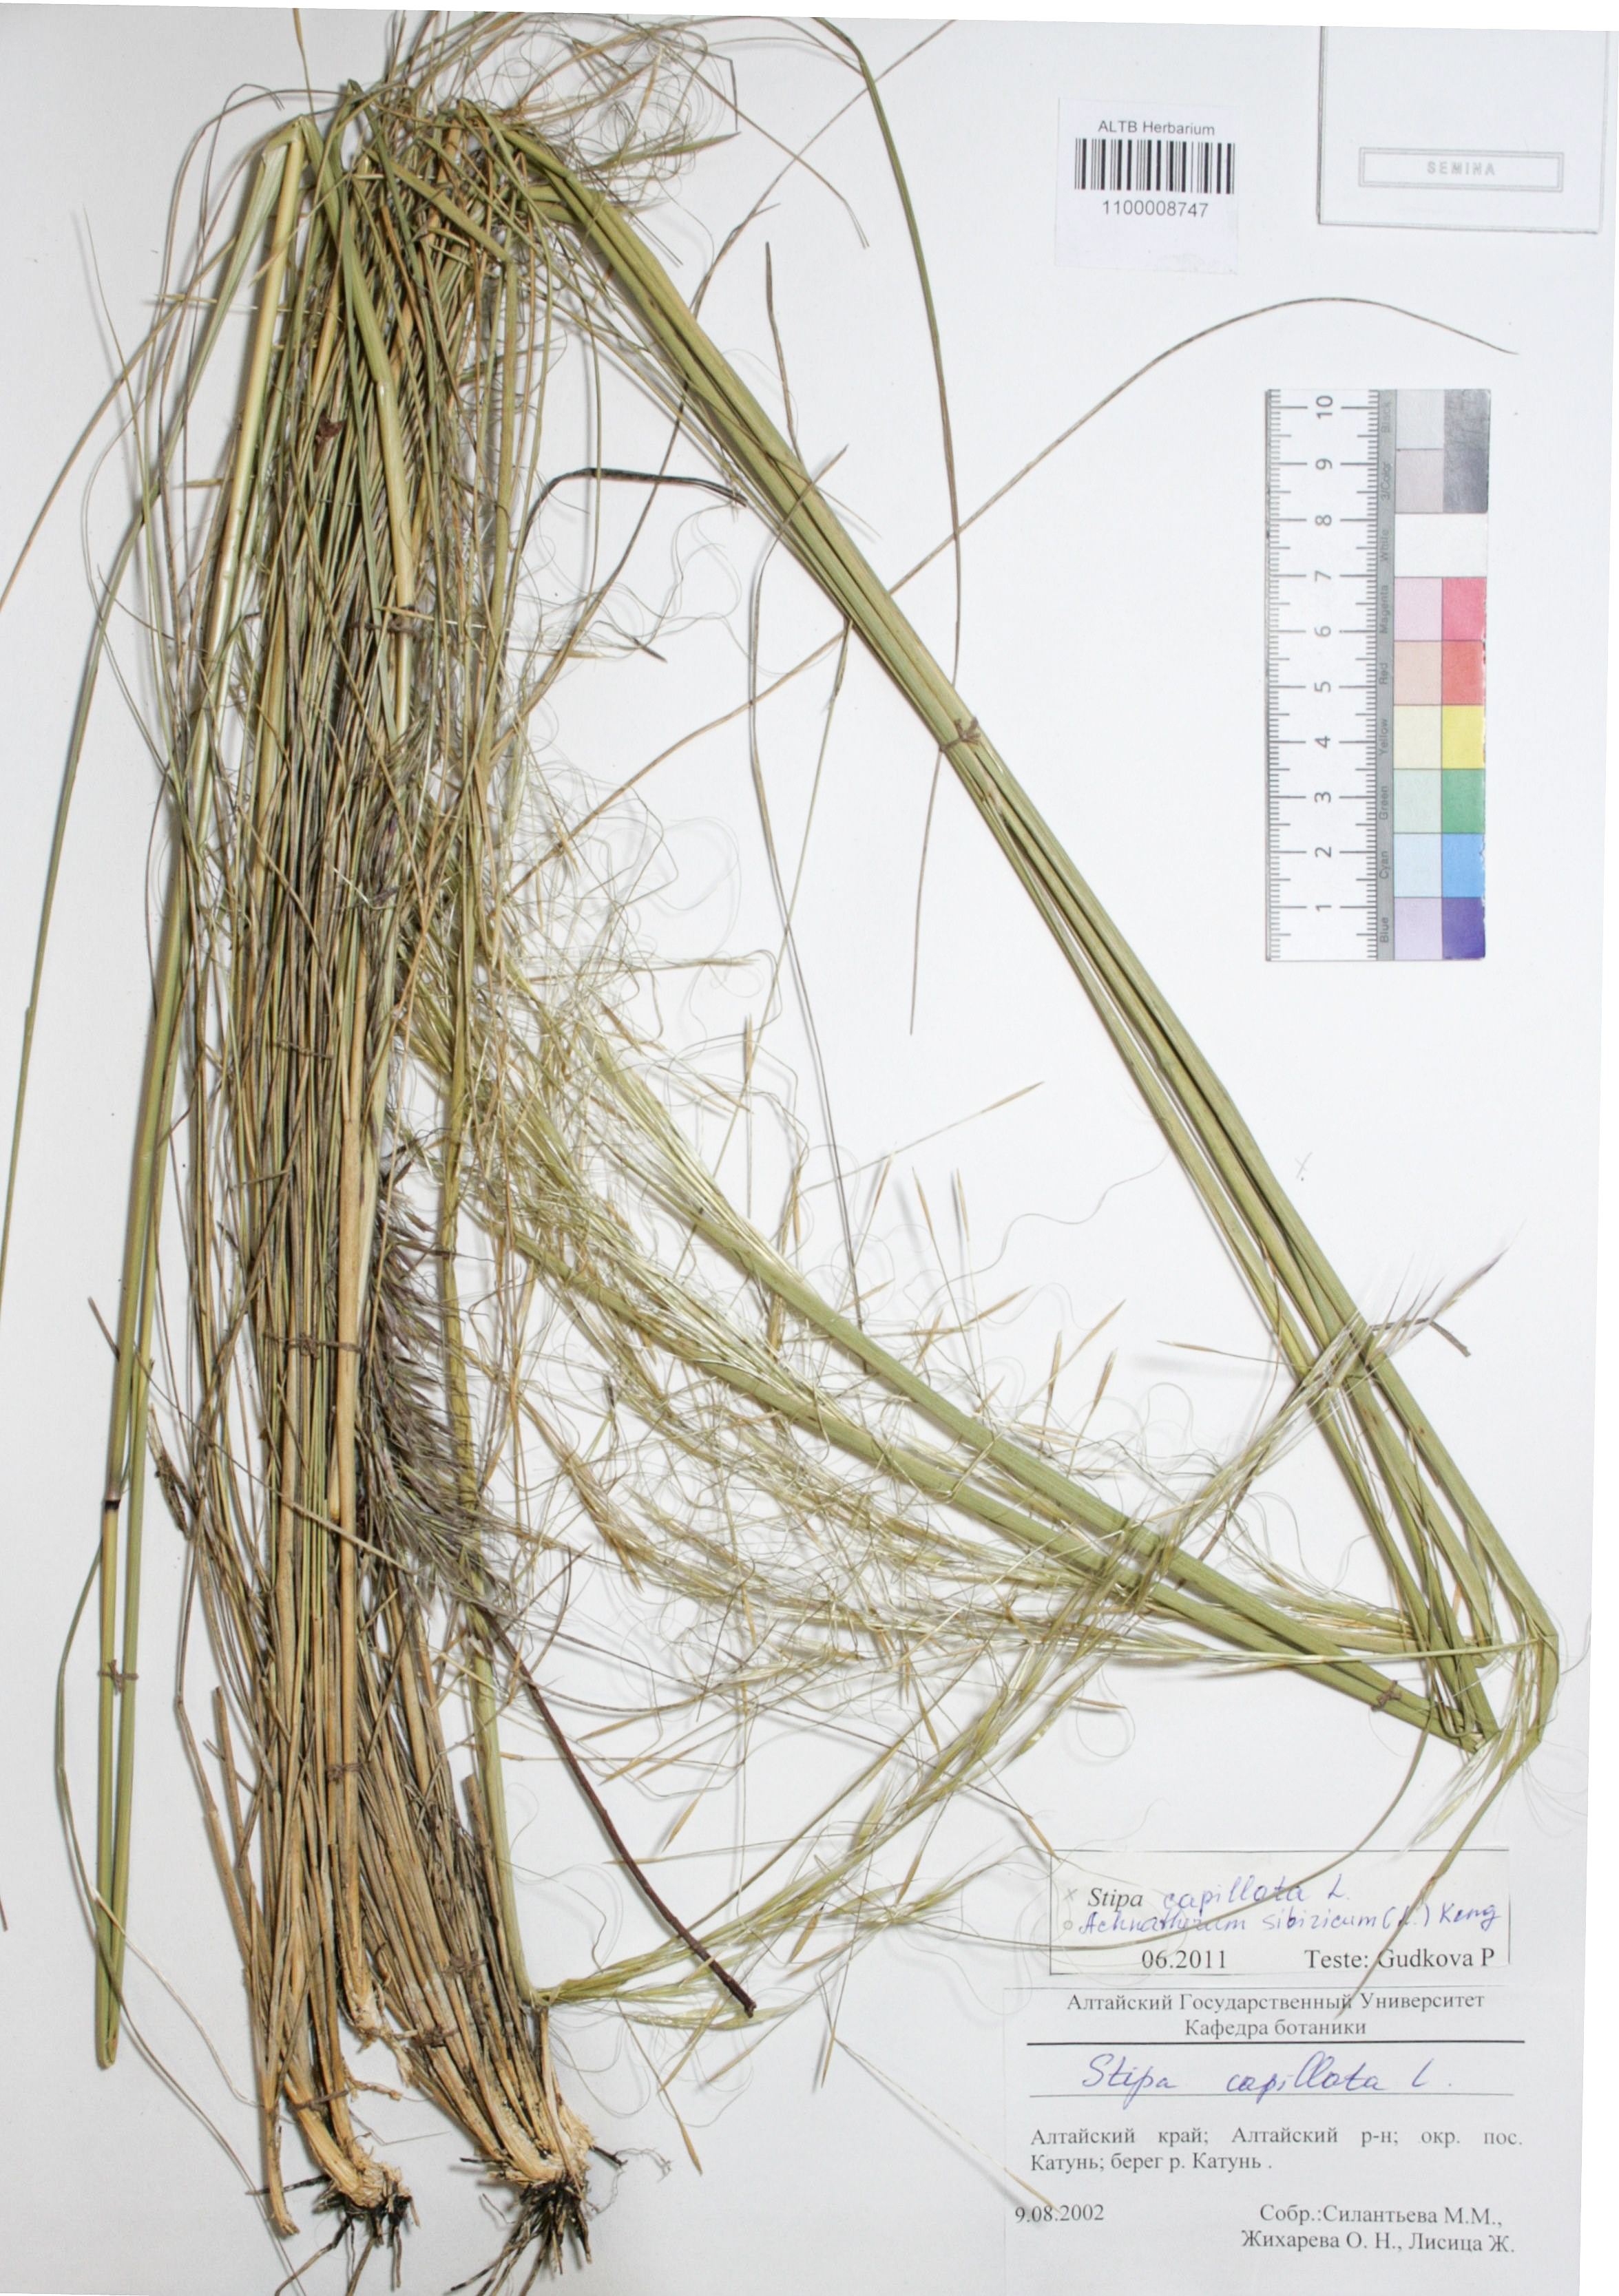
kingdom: Plantae
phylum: Tracheophyta
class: Liliopsida
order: Poales
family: Poaceae
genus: Stipa
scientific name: Stipa capillata
